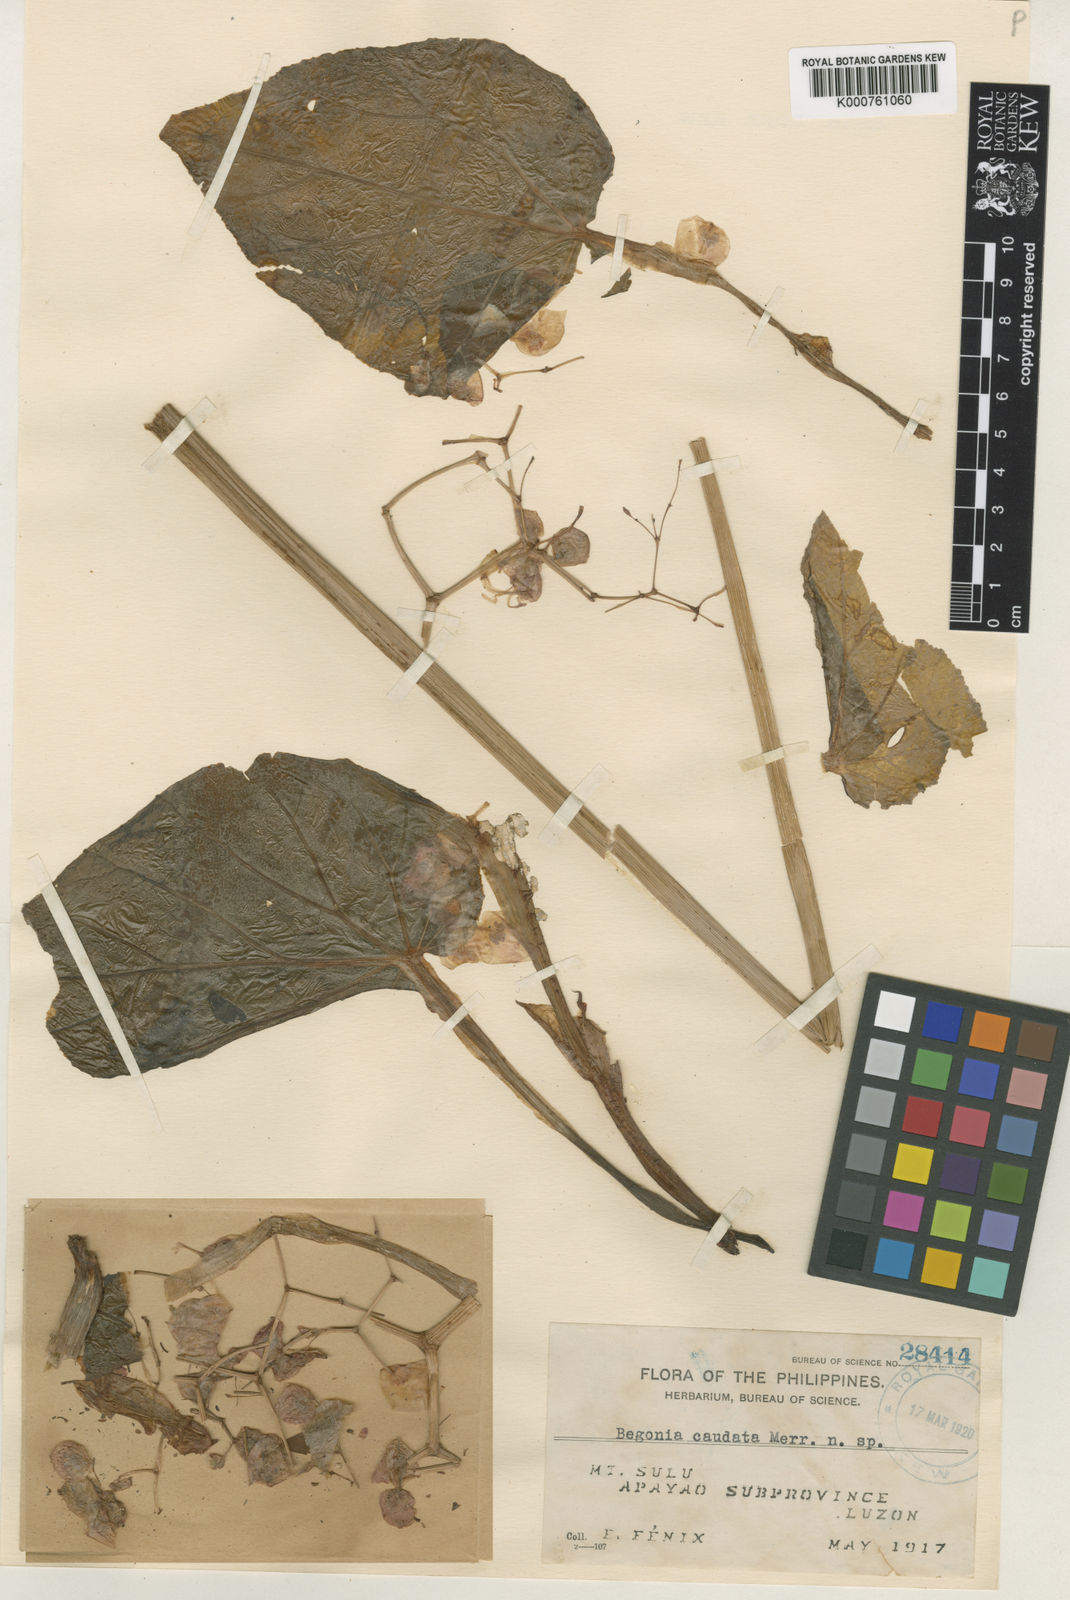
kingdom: Plantae
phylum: Tracheophyta
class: Magnoliopsida
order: Cucurbitales
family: Begoniaceae
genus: Begonia
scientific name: Begonia caudata
